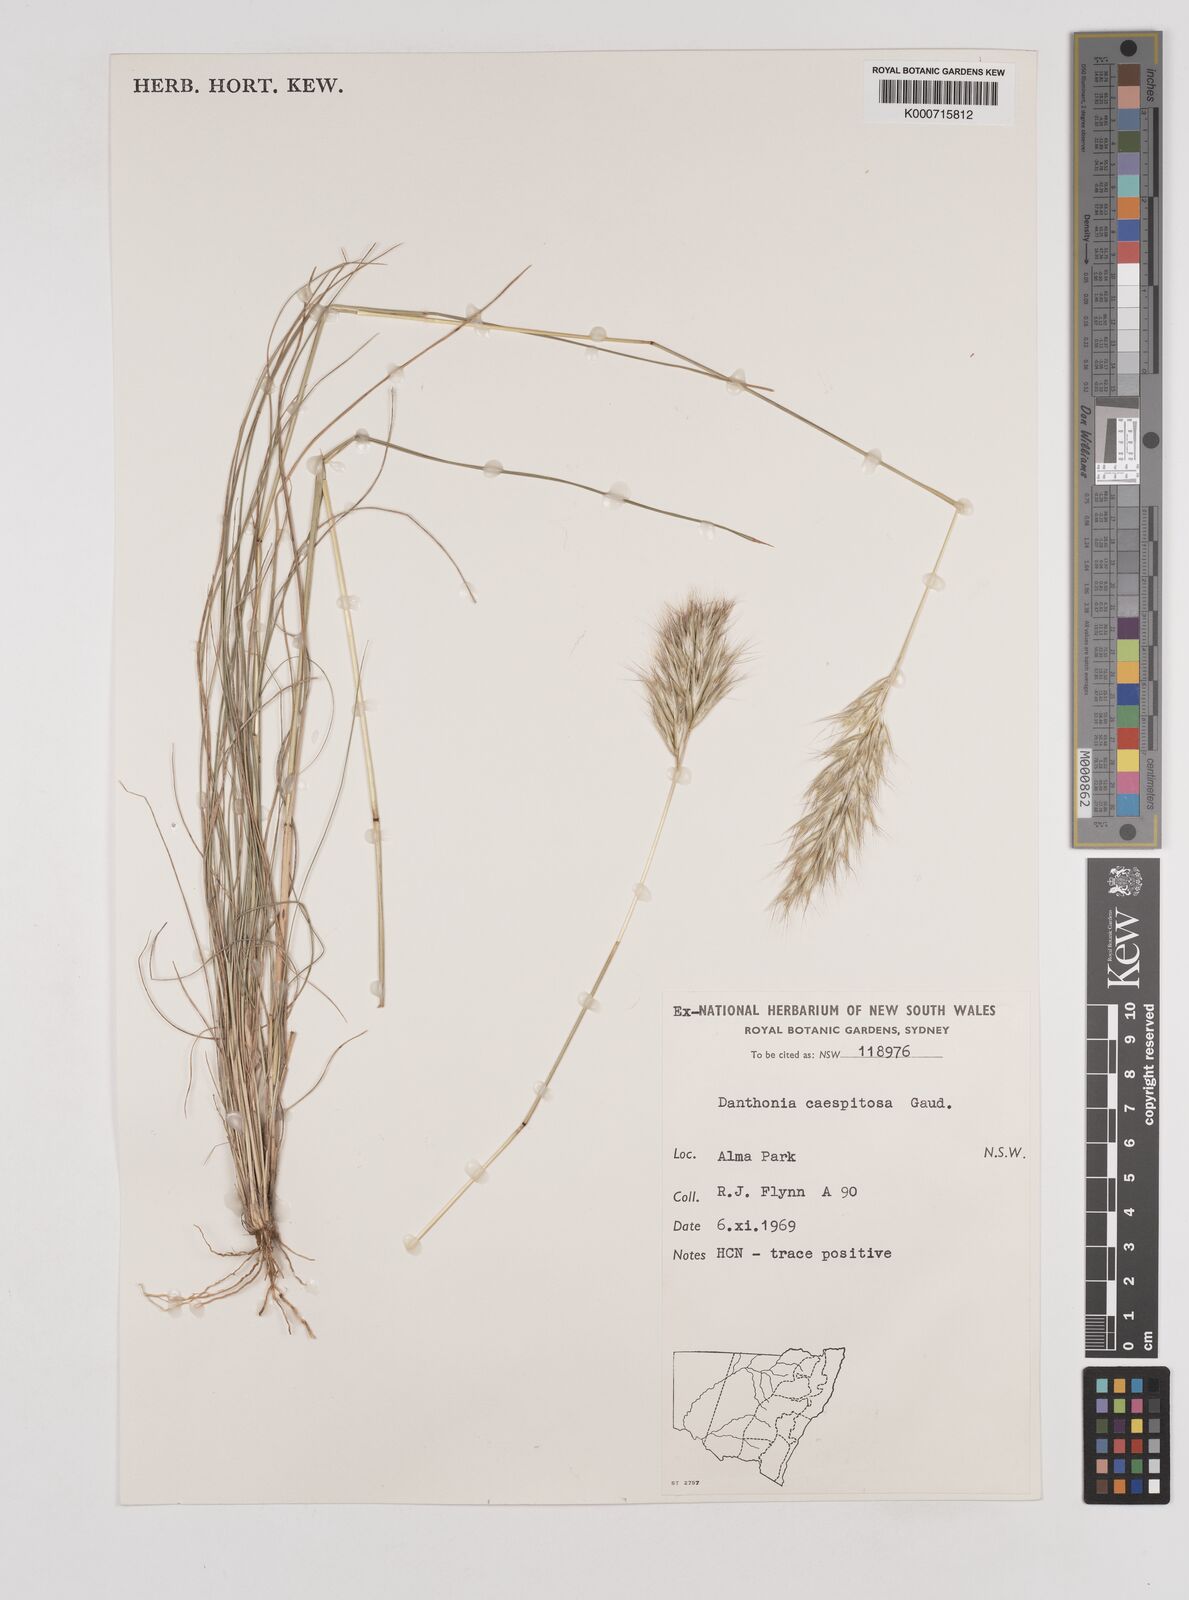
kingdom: Plantae
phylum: Tracheophyta
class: Liliopsida
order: Poales
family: Poaceae
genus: Rytidosperma
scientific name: Rytidosperma caespitosum
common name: Tufted wallaby grass
